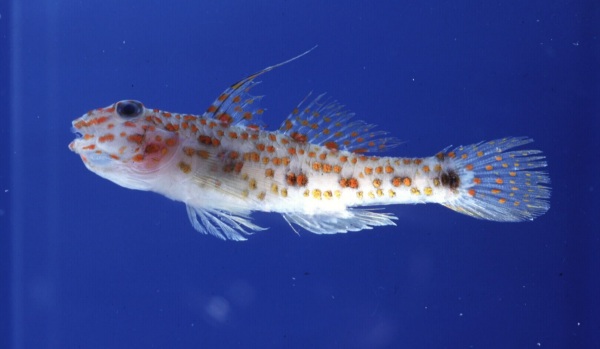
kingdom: Animalia
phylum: Chordata
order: Perciformes
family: Gobiidae
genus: Fusigobius
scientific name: Fusigobius longispinus
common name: Longspine goby
